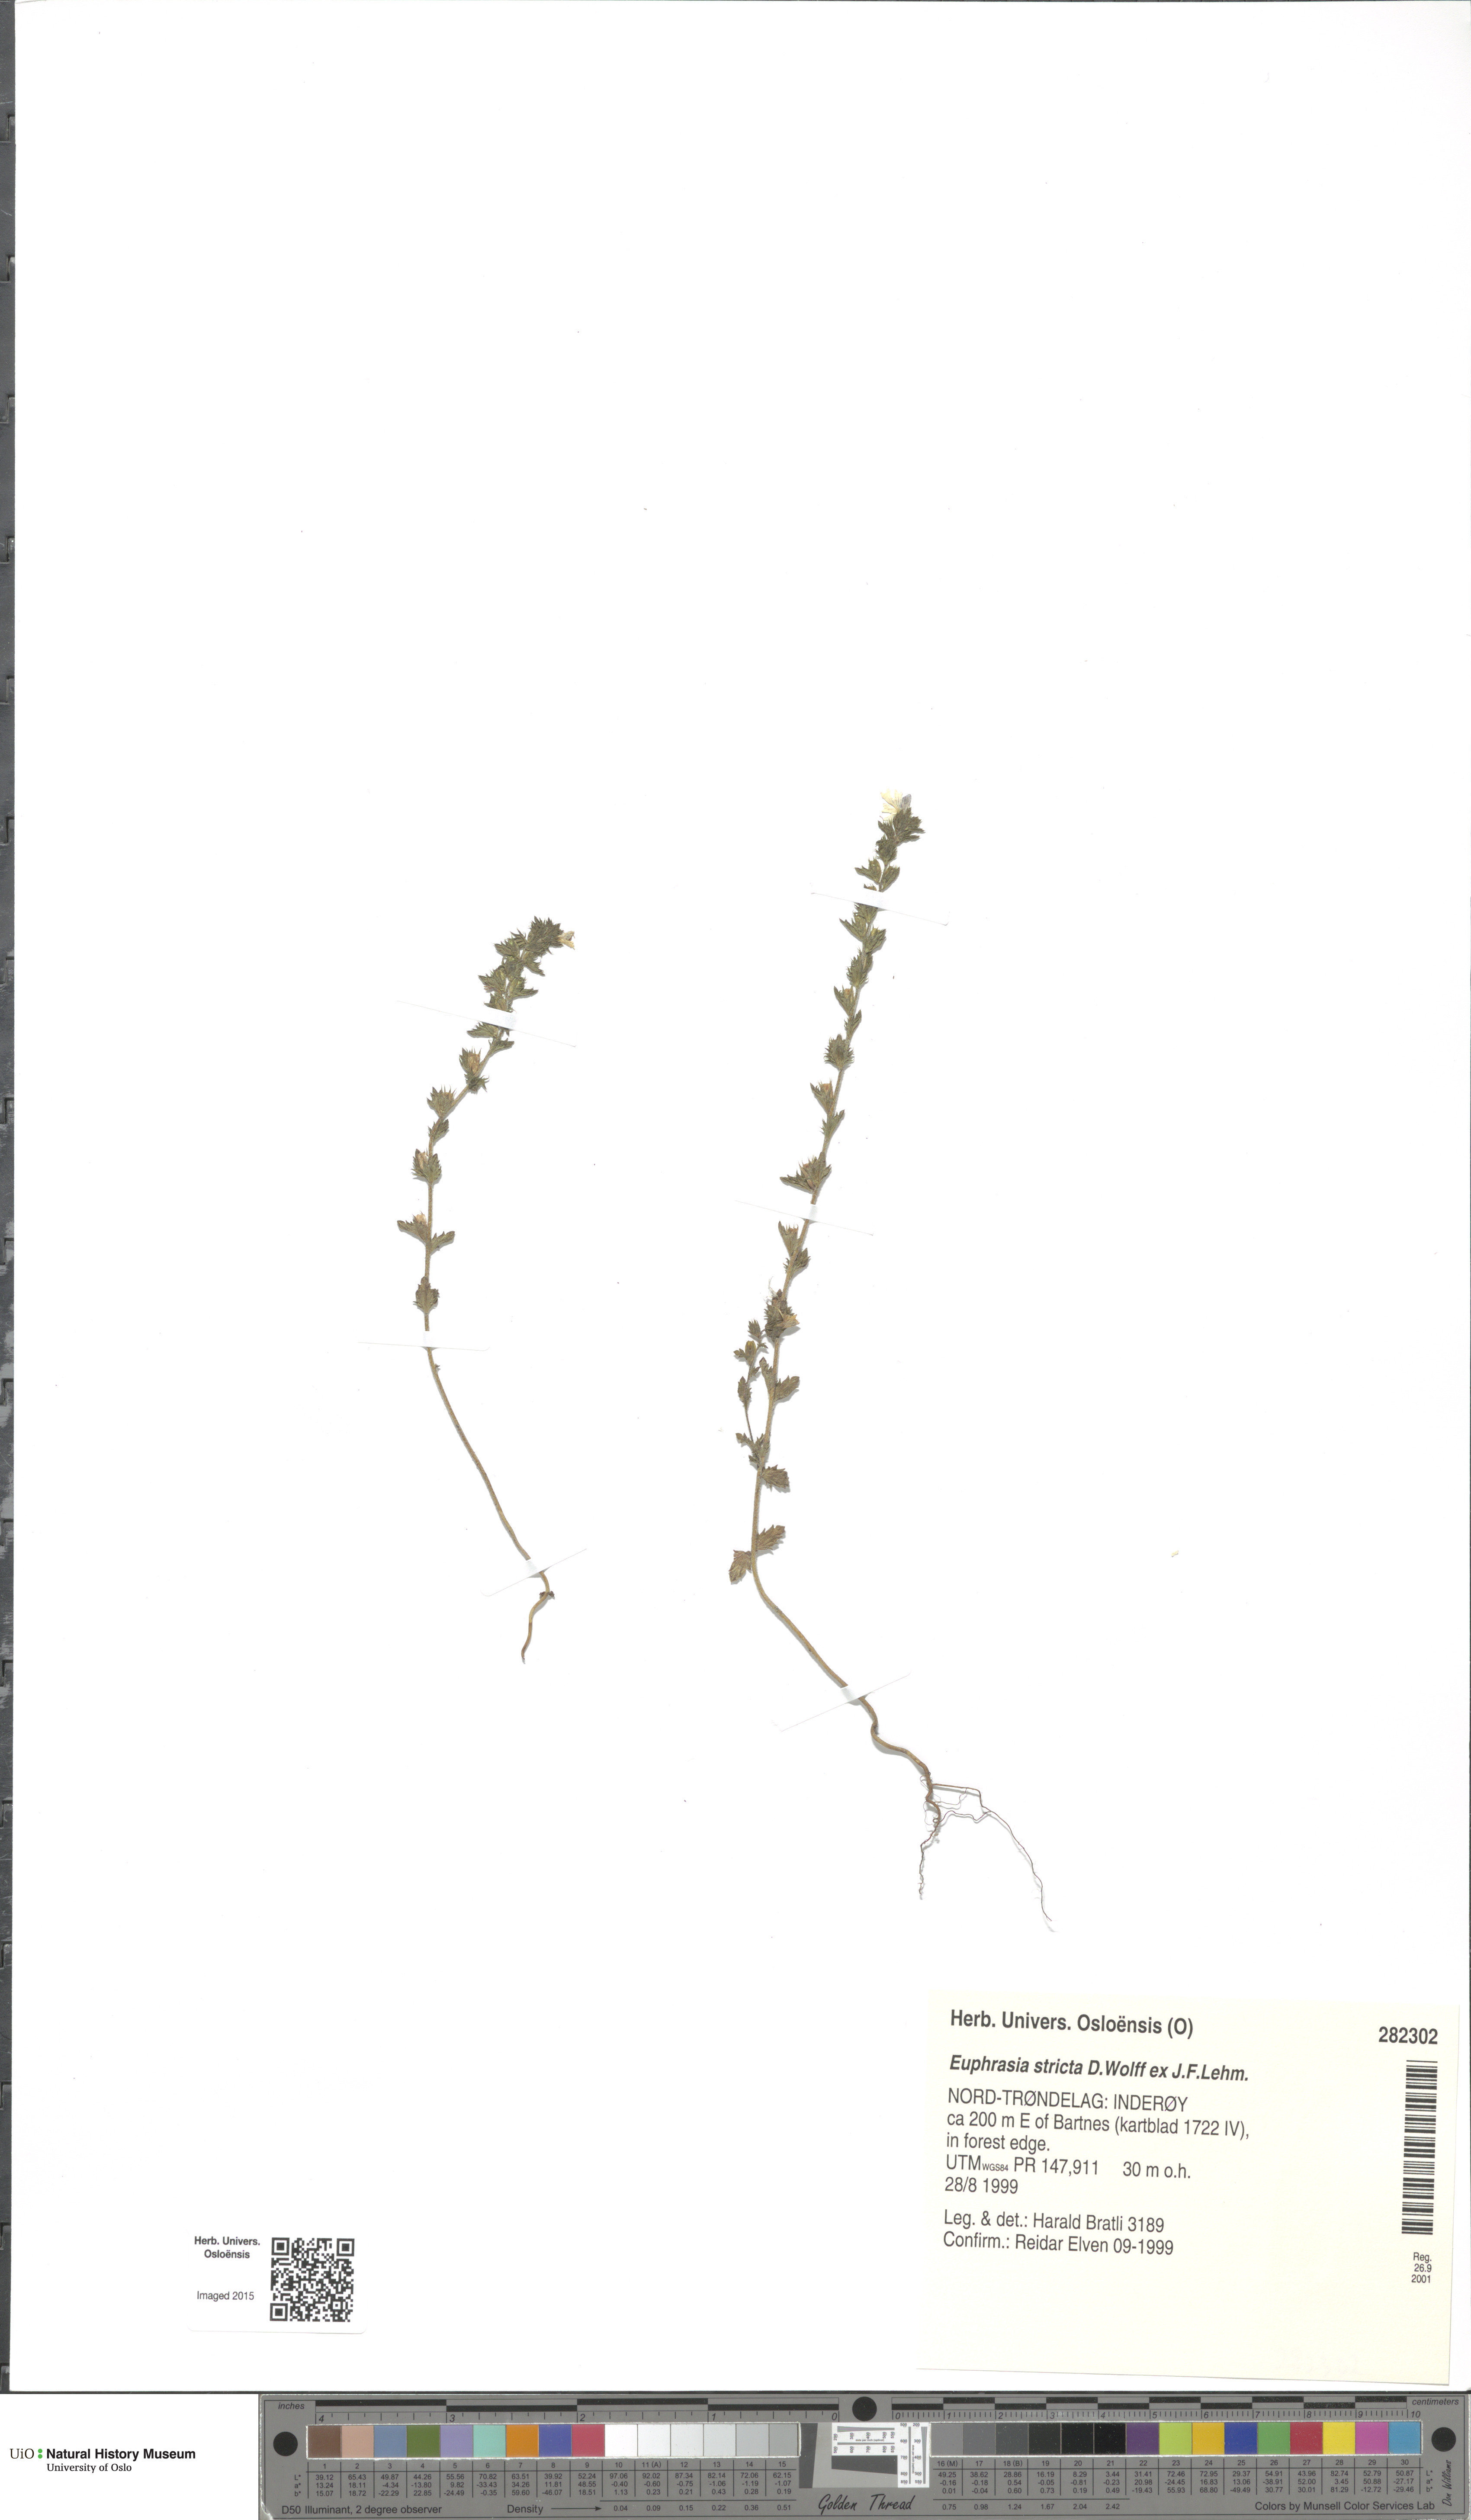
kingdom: Plantae
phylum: Tracheophyta
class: Magnoliopsida
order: Lamiales
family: Orobanchaceae
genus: Euphrasia
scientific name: Euphrasia stricta
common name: Drug eyebright
